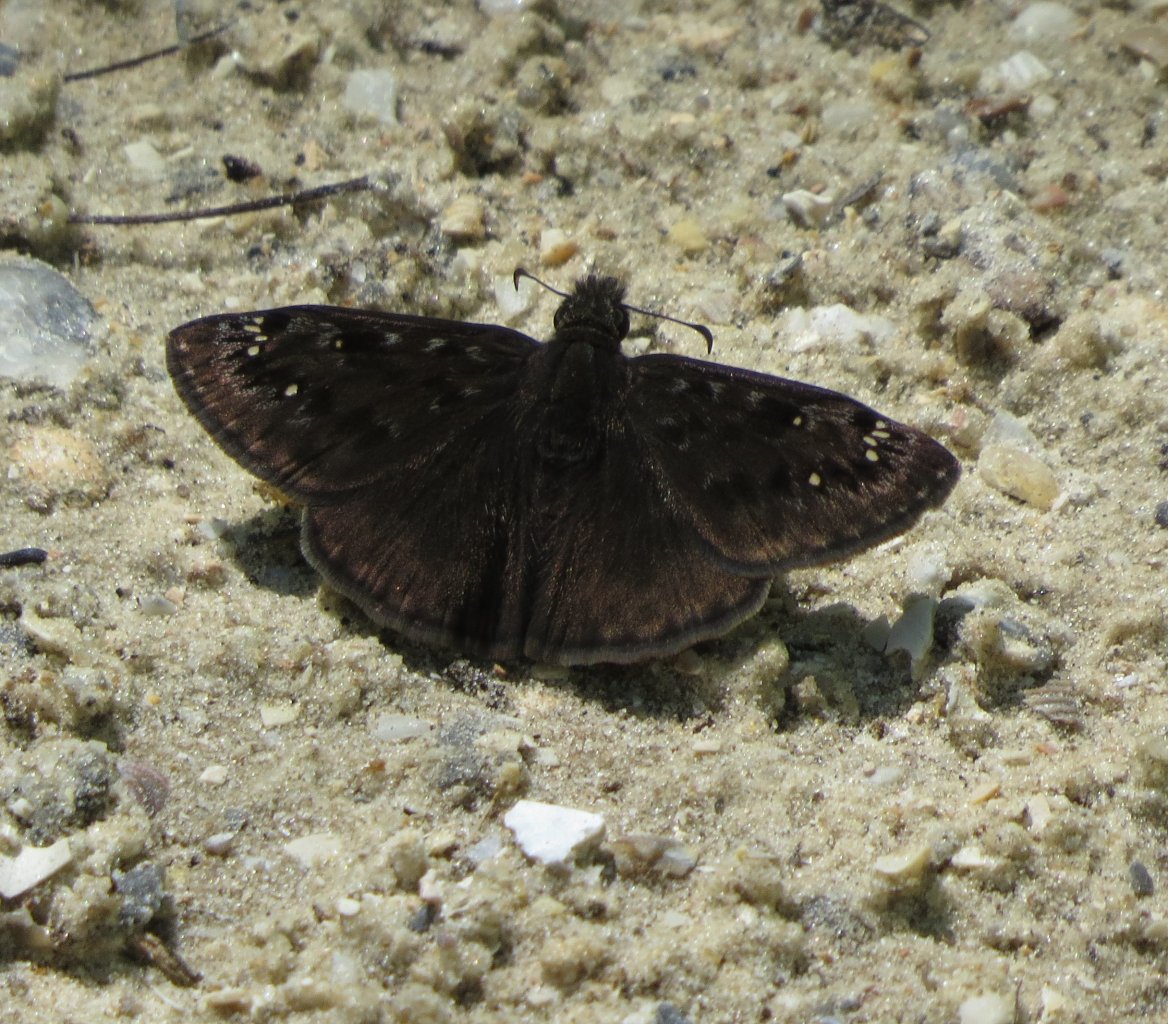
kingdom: Animalia
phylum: Arthropoda
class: Insecta
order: Lepidoptera
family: Hesperiidae
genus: Gesta
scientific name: Gesta
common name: Horace's Duskywing
